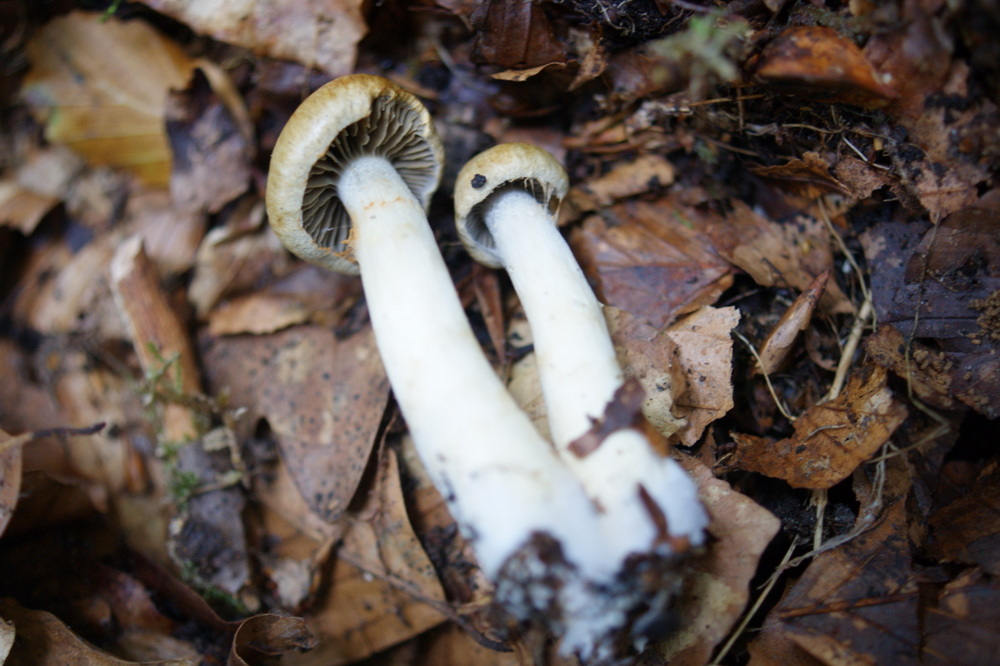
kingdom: Fungi
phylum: Basidiomycota
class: Agaricomycetes
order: Agaricales
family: Cortinariaceae
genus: Cortinarius
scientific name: Cortinarius subtortus
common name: olivengul slørhat
